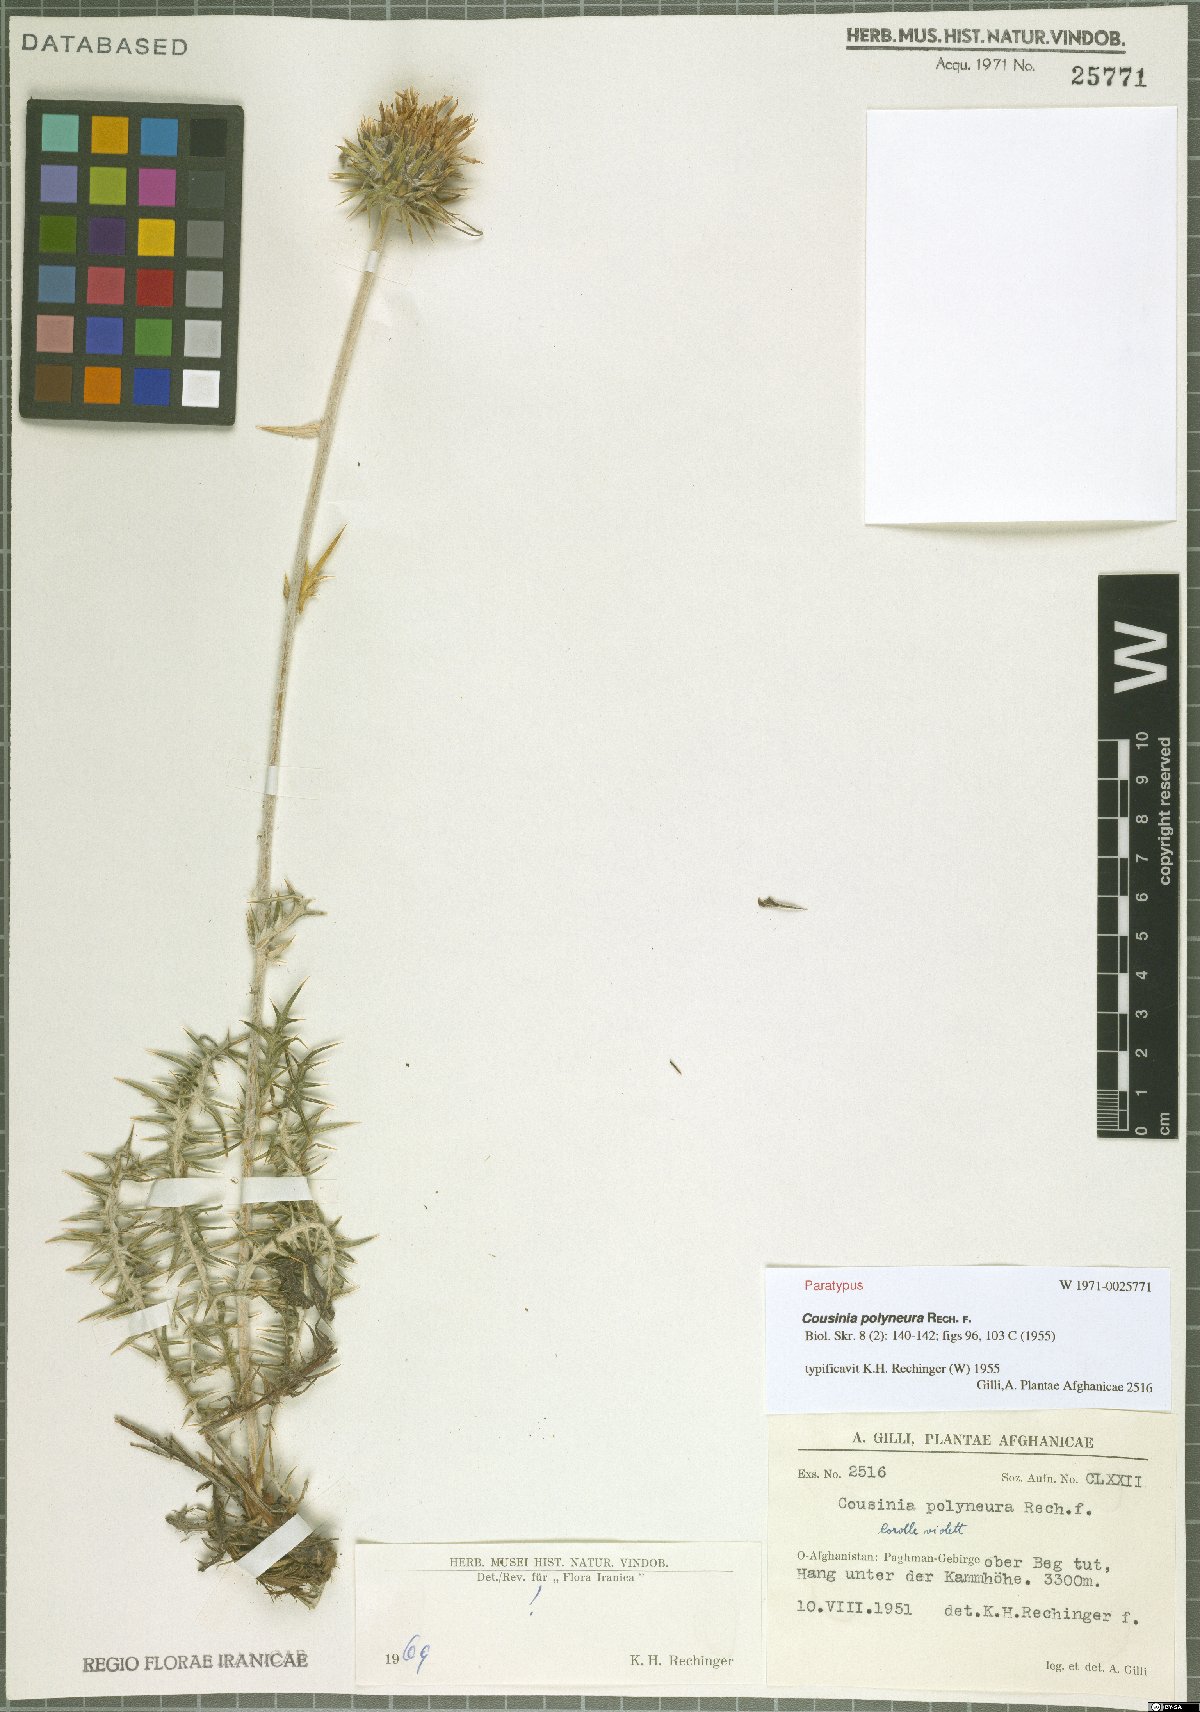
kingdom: Plantae
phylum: Tracheophyta
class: Magnoliopsida
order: Asterales
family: Asteraceae
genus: Cousinia
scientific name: Cousinia polyneura
